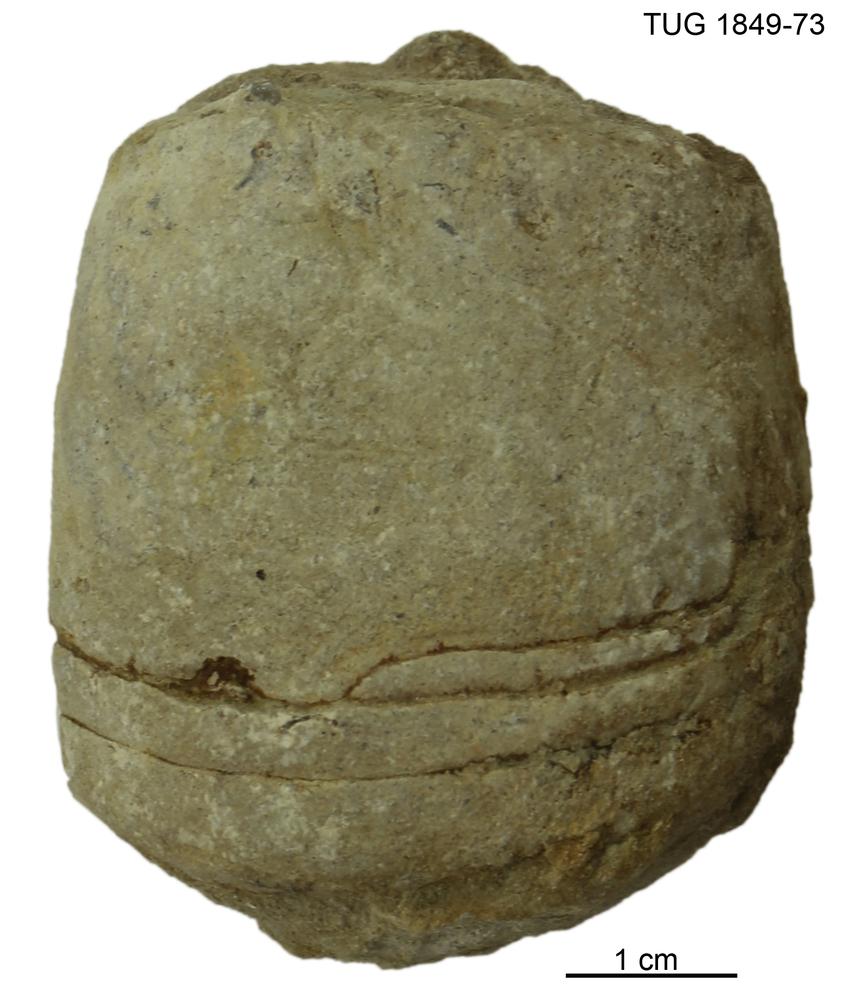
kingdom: Animalia
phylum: Mollusca
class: Cephalopoda
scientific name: Cephalopoda
